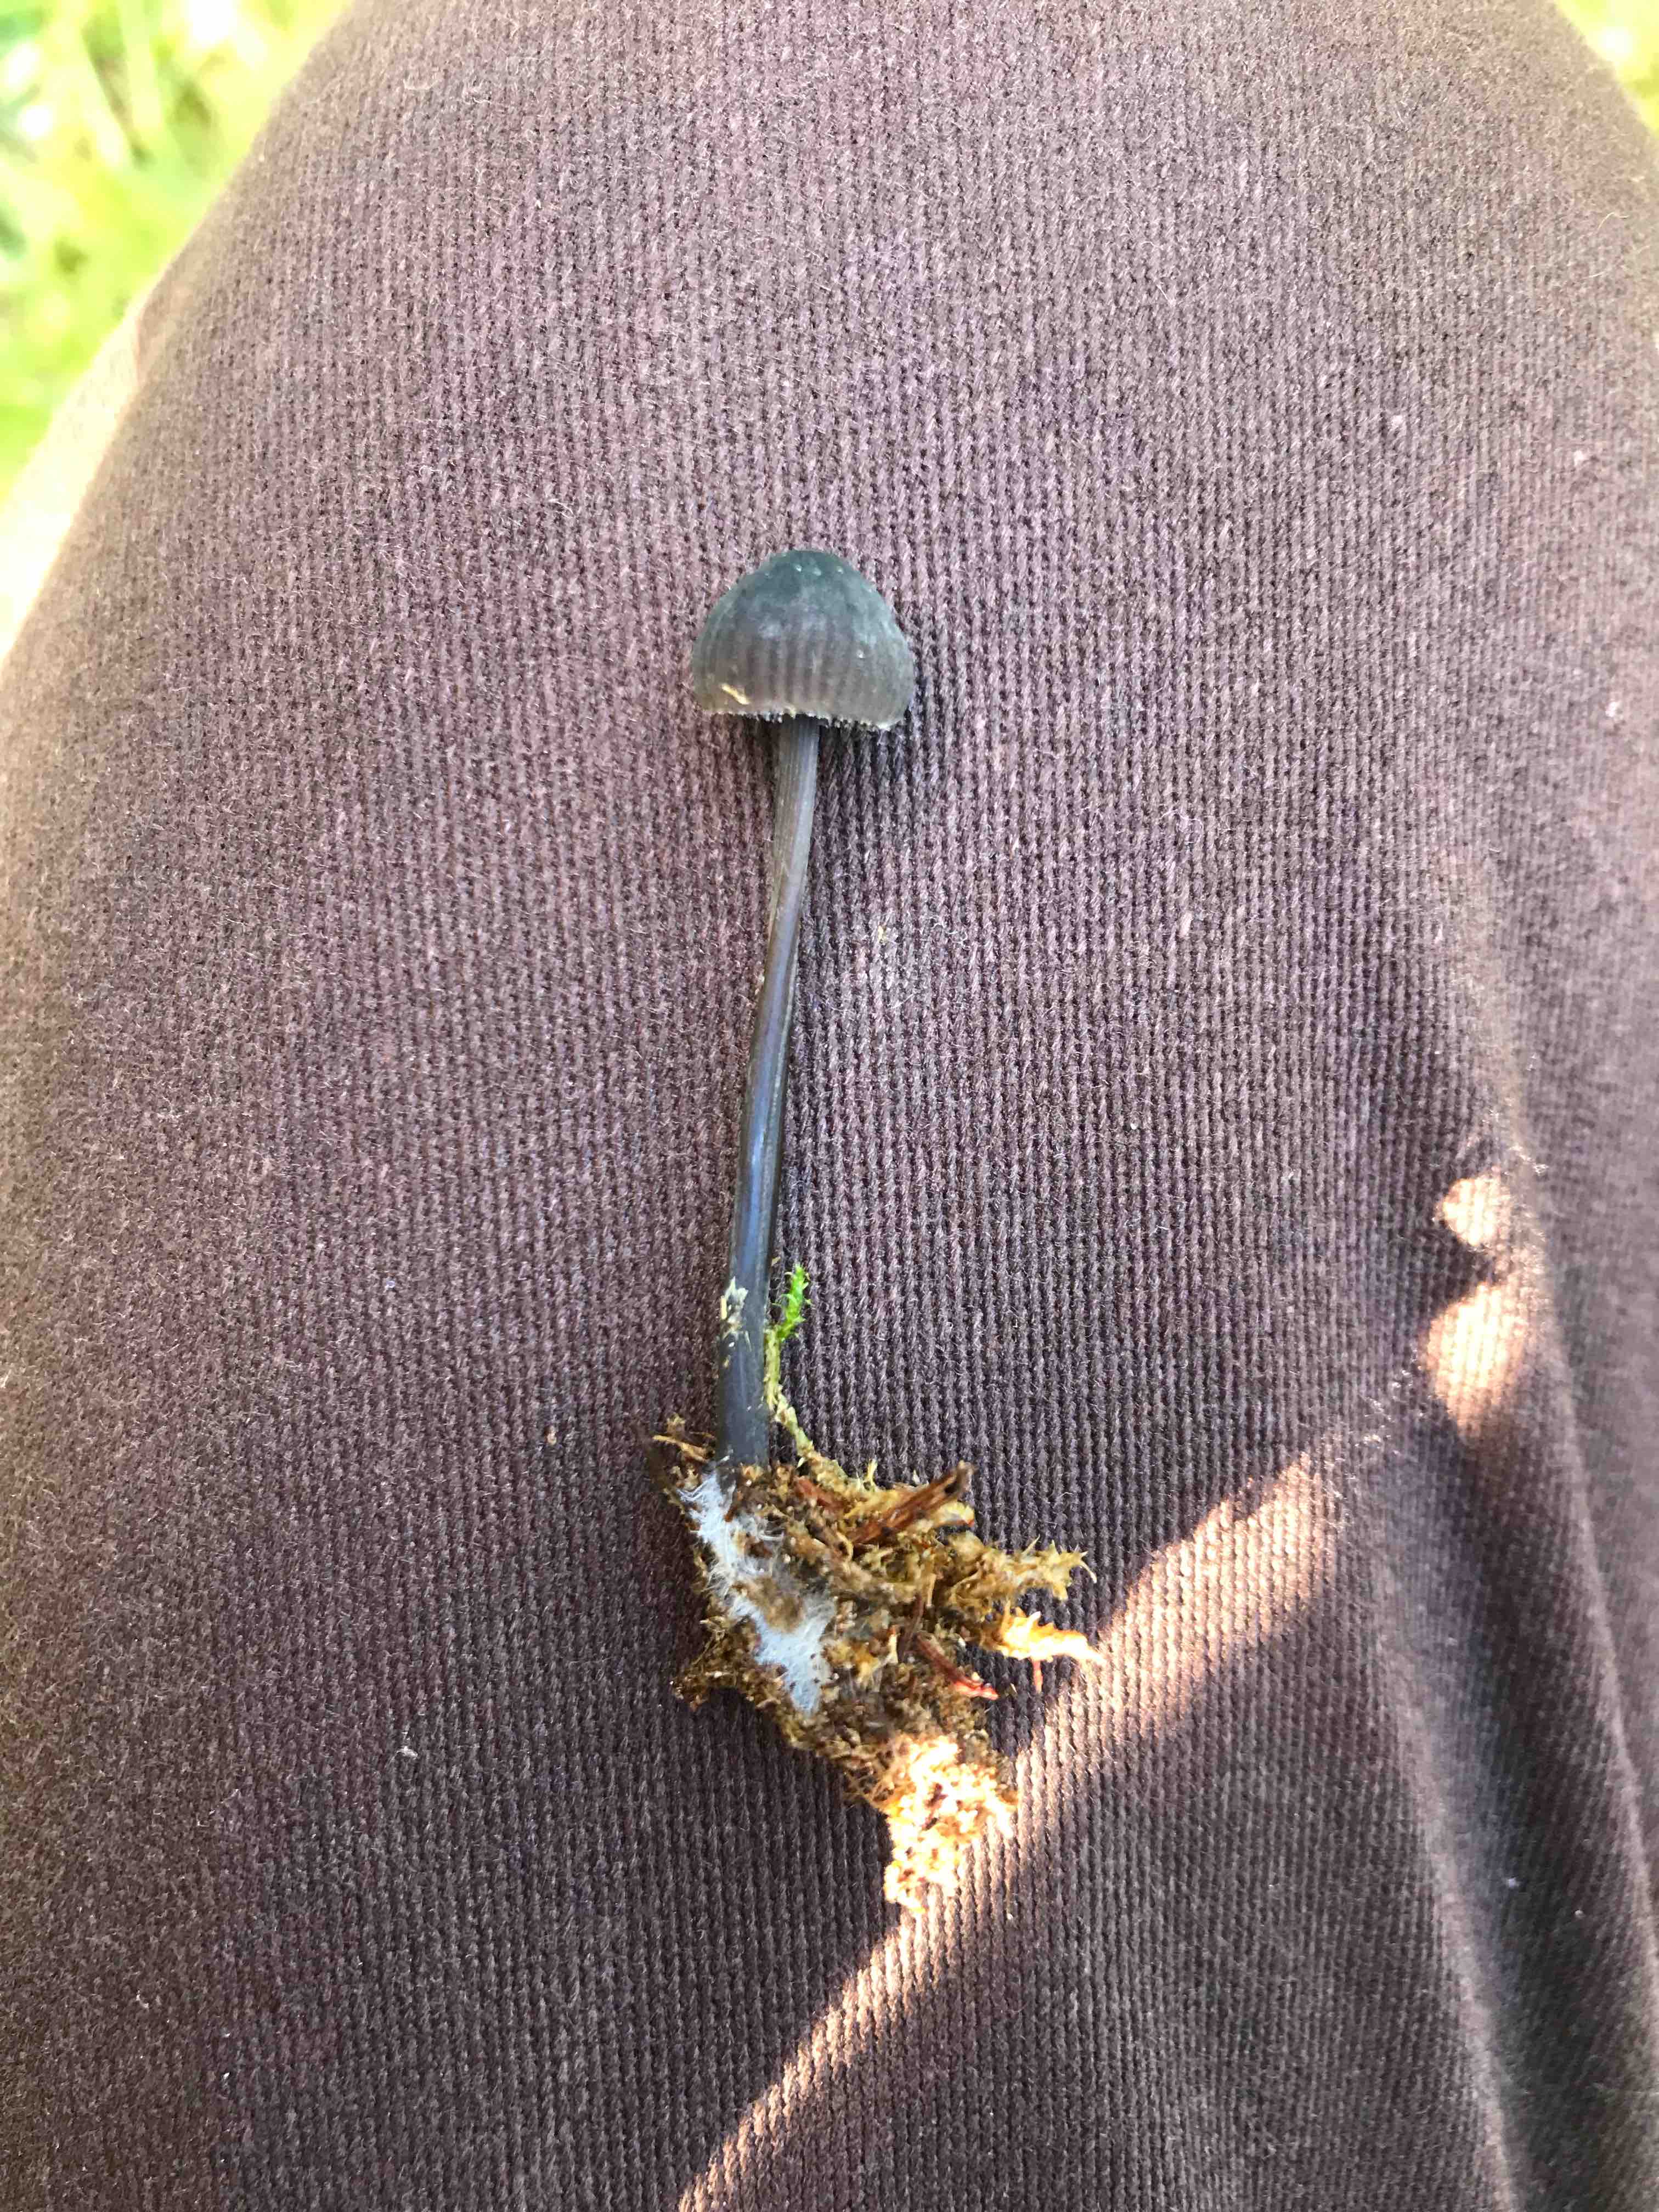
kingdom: Fungi
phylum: Basidiomycota
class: Agaricomycetes
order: Agaricales
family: Mycenaceae
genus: Mycena
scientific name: Mycena galopus
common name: hvidmælket huesvamp
